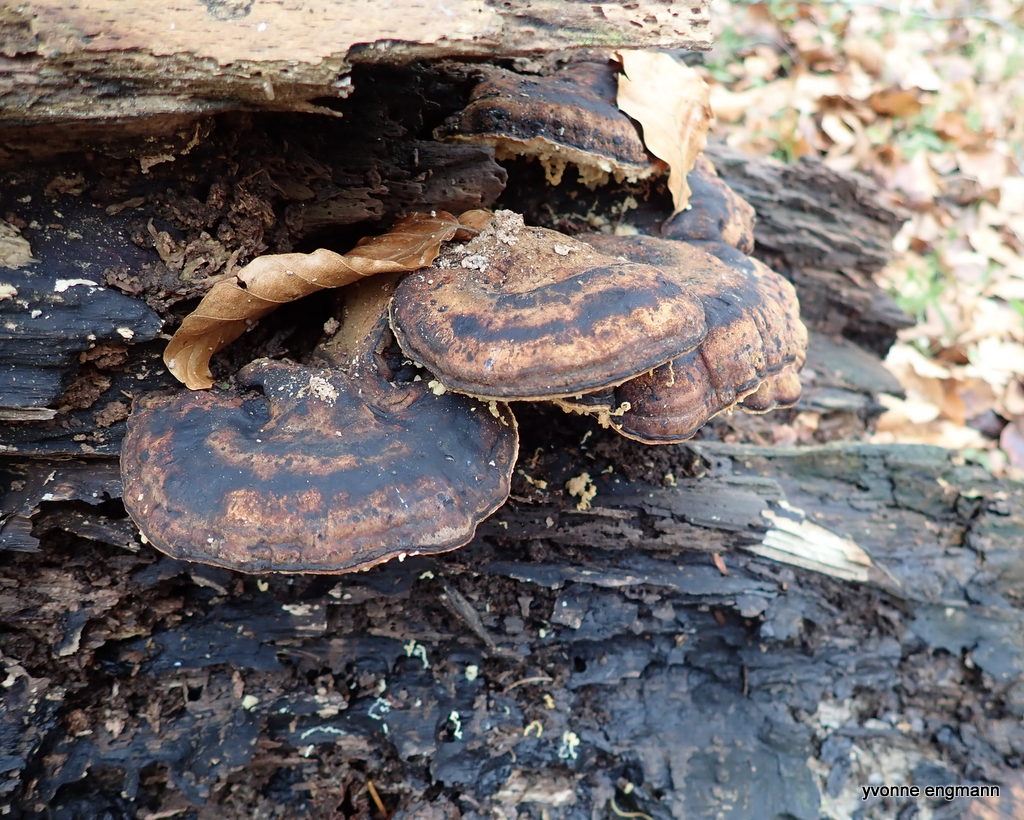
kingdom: Fungi
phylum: Basidiomycota
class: Agaricomycetes
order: Polyporales
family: Ischnodermataceae
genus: Ischnoderma
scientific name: Ischnoderma resinosum
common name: løv-tjæreporesvamp
